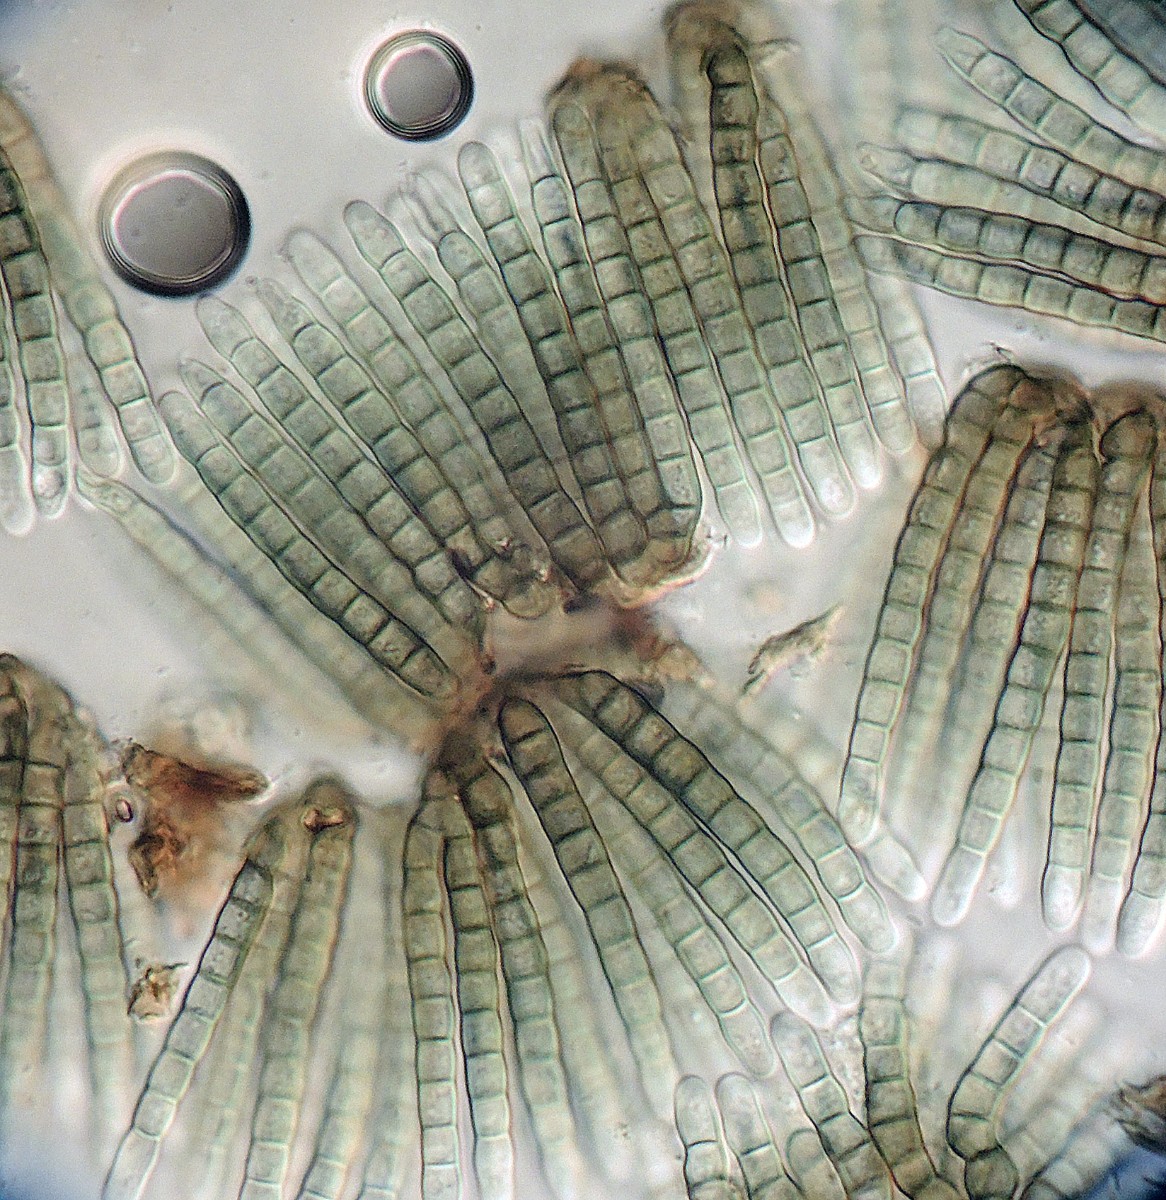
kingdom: Fungi
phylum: Ascomycota
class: Dothideomycetes
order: Pleosporales
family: Cryptocoryneaceae
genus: Cryptocoryneum
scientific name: Cryptocoryneum condensatum
